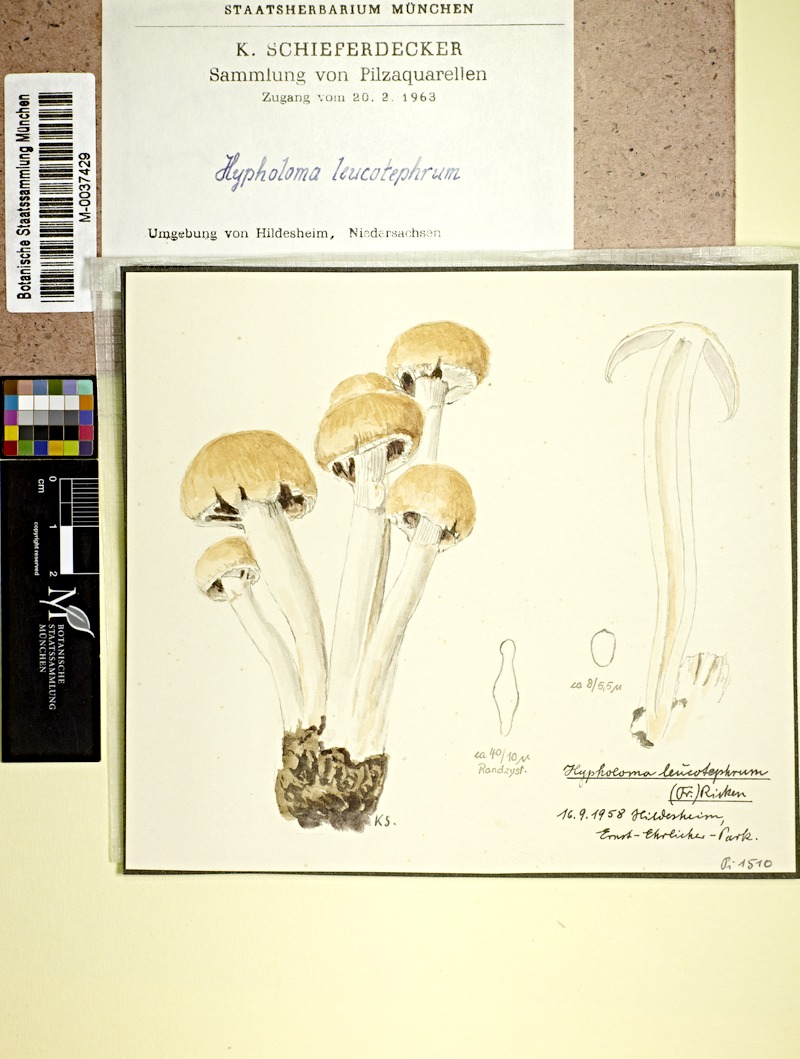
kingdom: Fungi
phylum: Basidiomycota
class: Agaricomycetes
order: Agaricales
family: Psathyrellaceae
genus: Candolleomyces
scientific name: Candolleomyces leucotephrus
